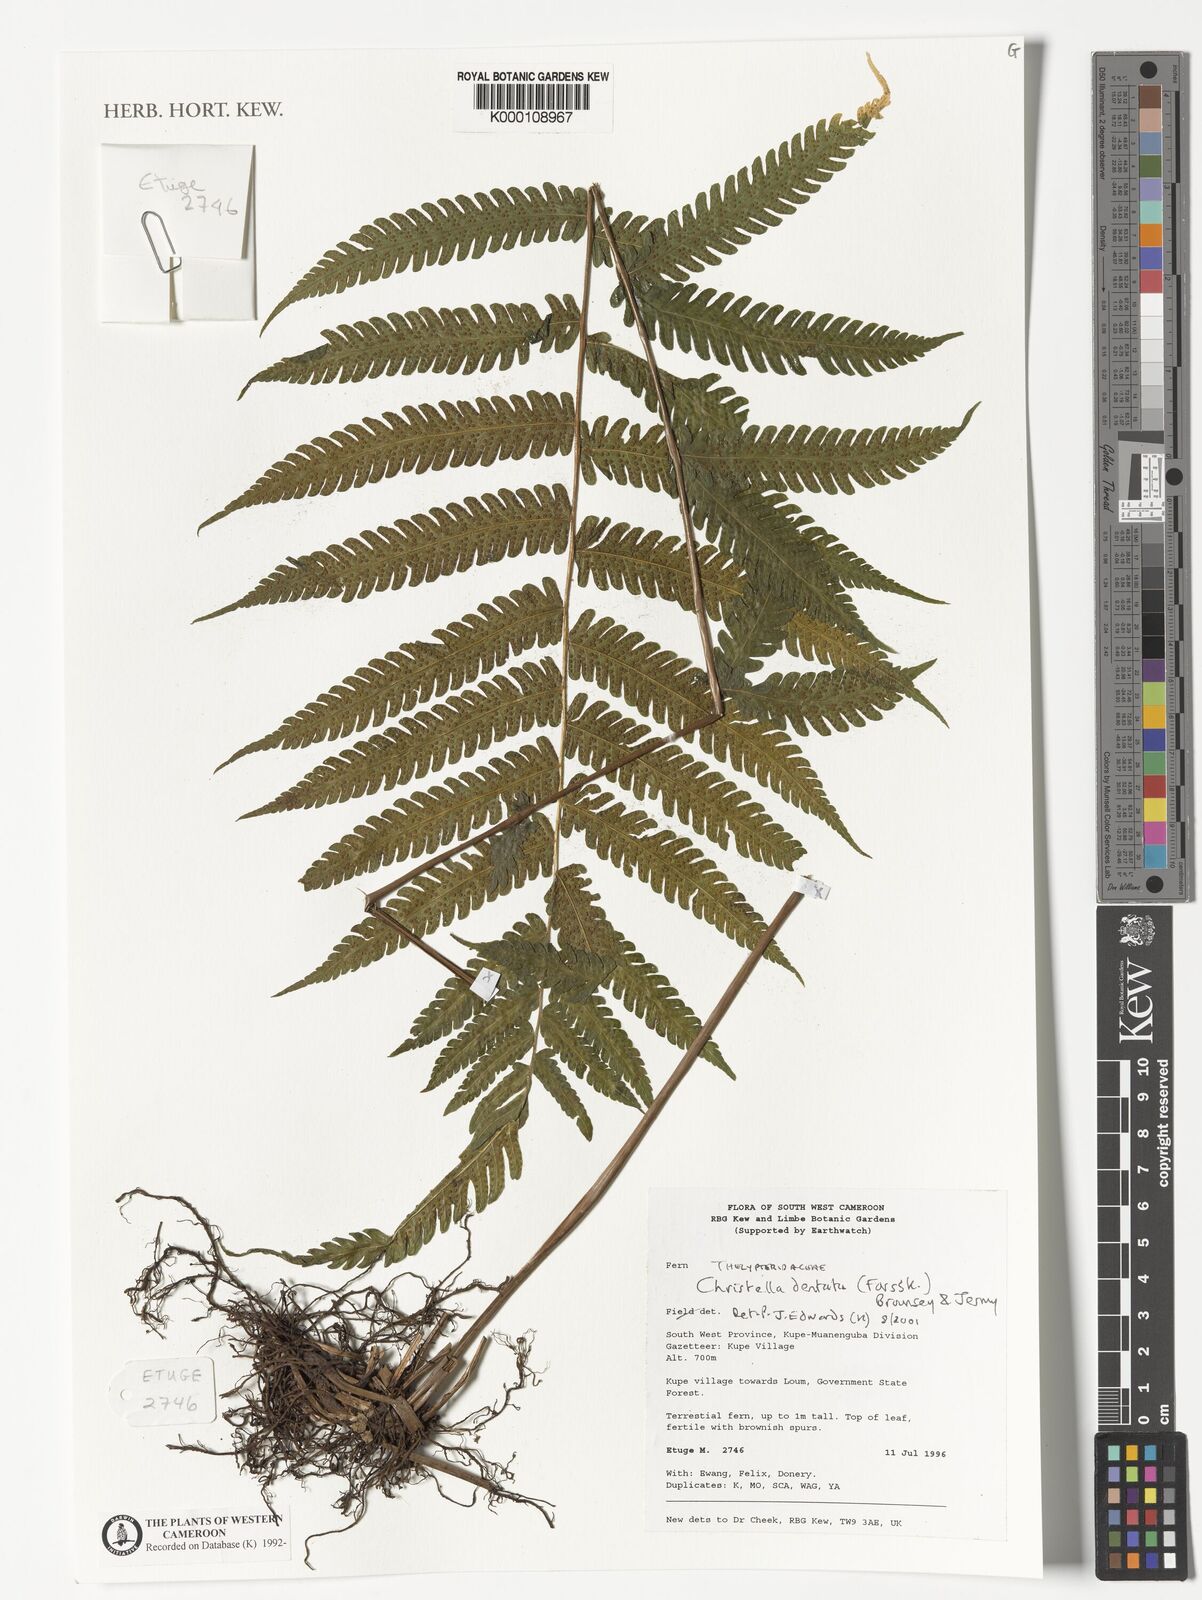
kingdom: Plantae
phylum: Tracheophyta
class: Polypodiopsida
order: Polypodiales
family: Thelypteridaceae
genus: Christella
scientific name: Christella dentata
